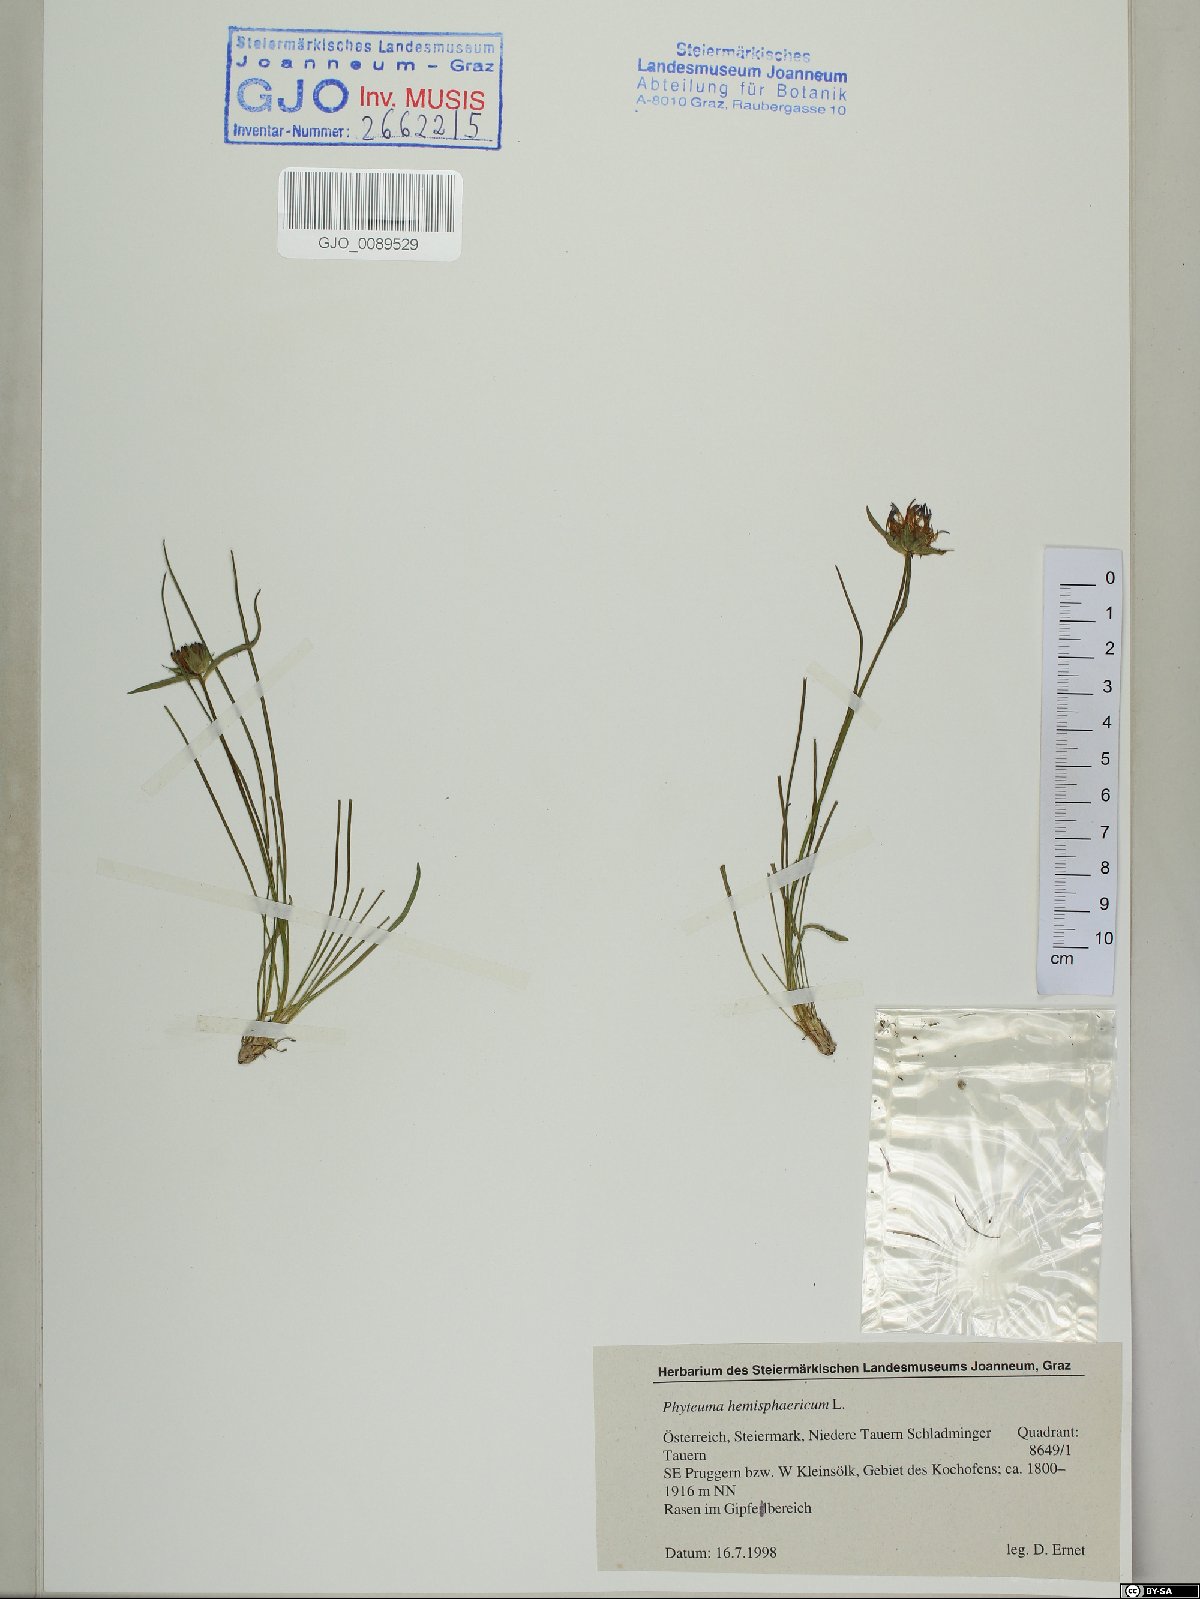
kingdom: Plantae
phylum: Tracheophyta
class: Magnoliopsida
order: Asterales
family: Campanulaceae
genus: Phyteuma
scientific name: Phyteuma hemisphaericum
